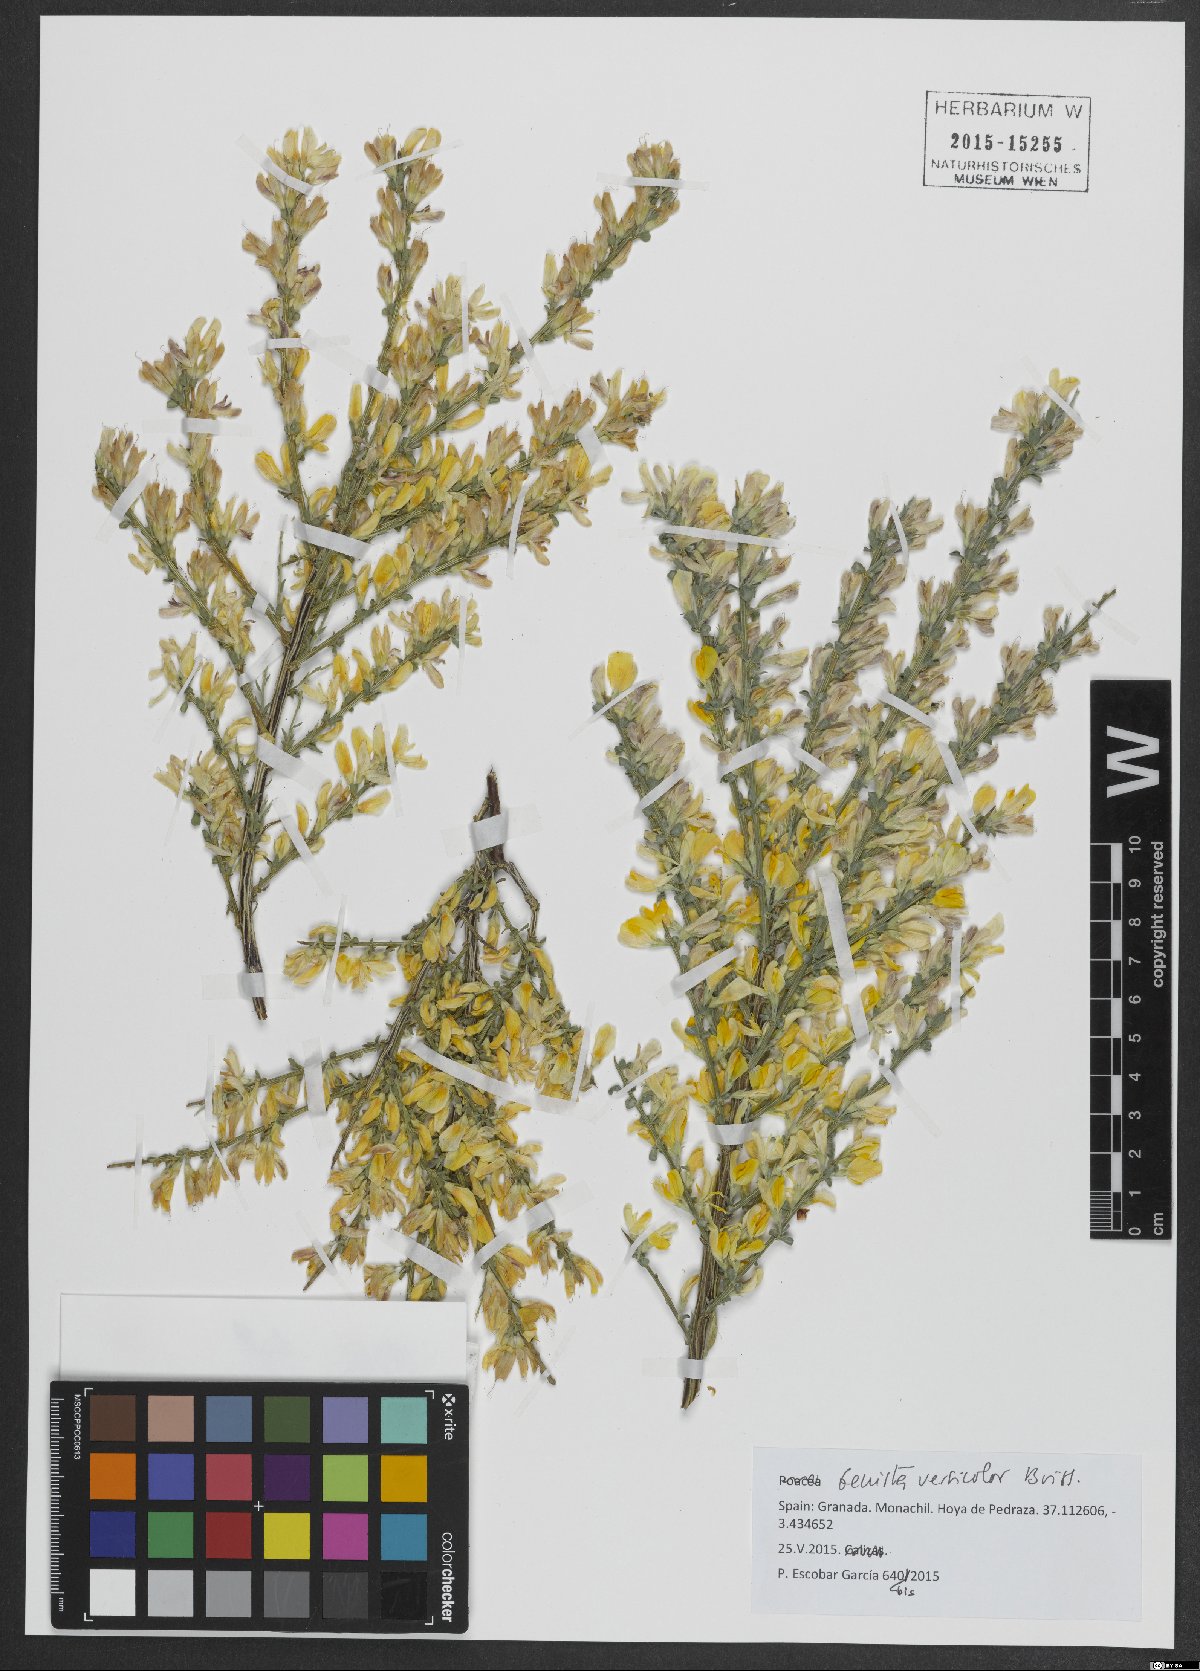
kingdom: Plantae
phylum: Tracheophyta
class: Magnoliopsida
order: Fabales
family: Fabaceae
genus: Genista
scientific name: Genista versicolor
